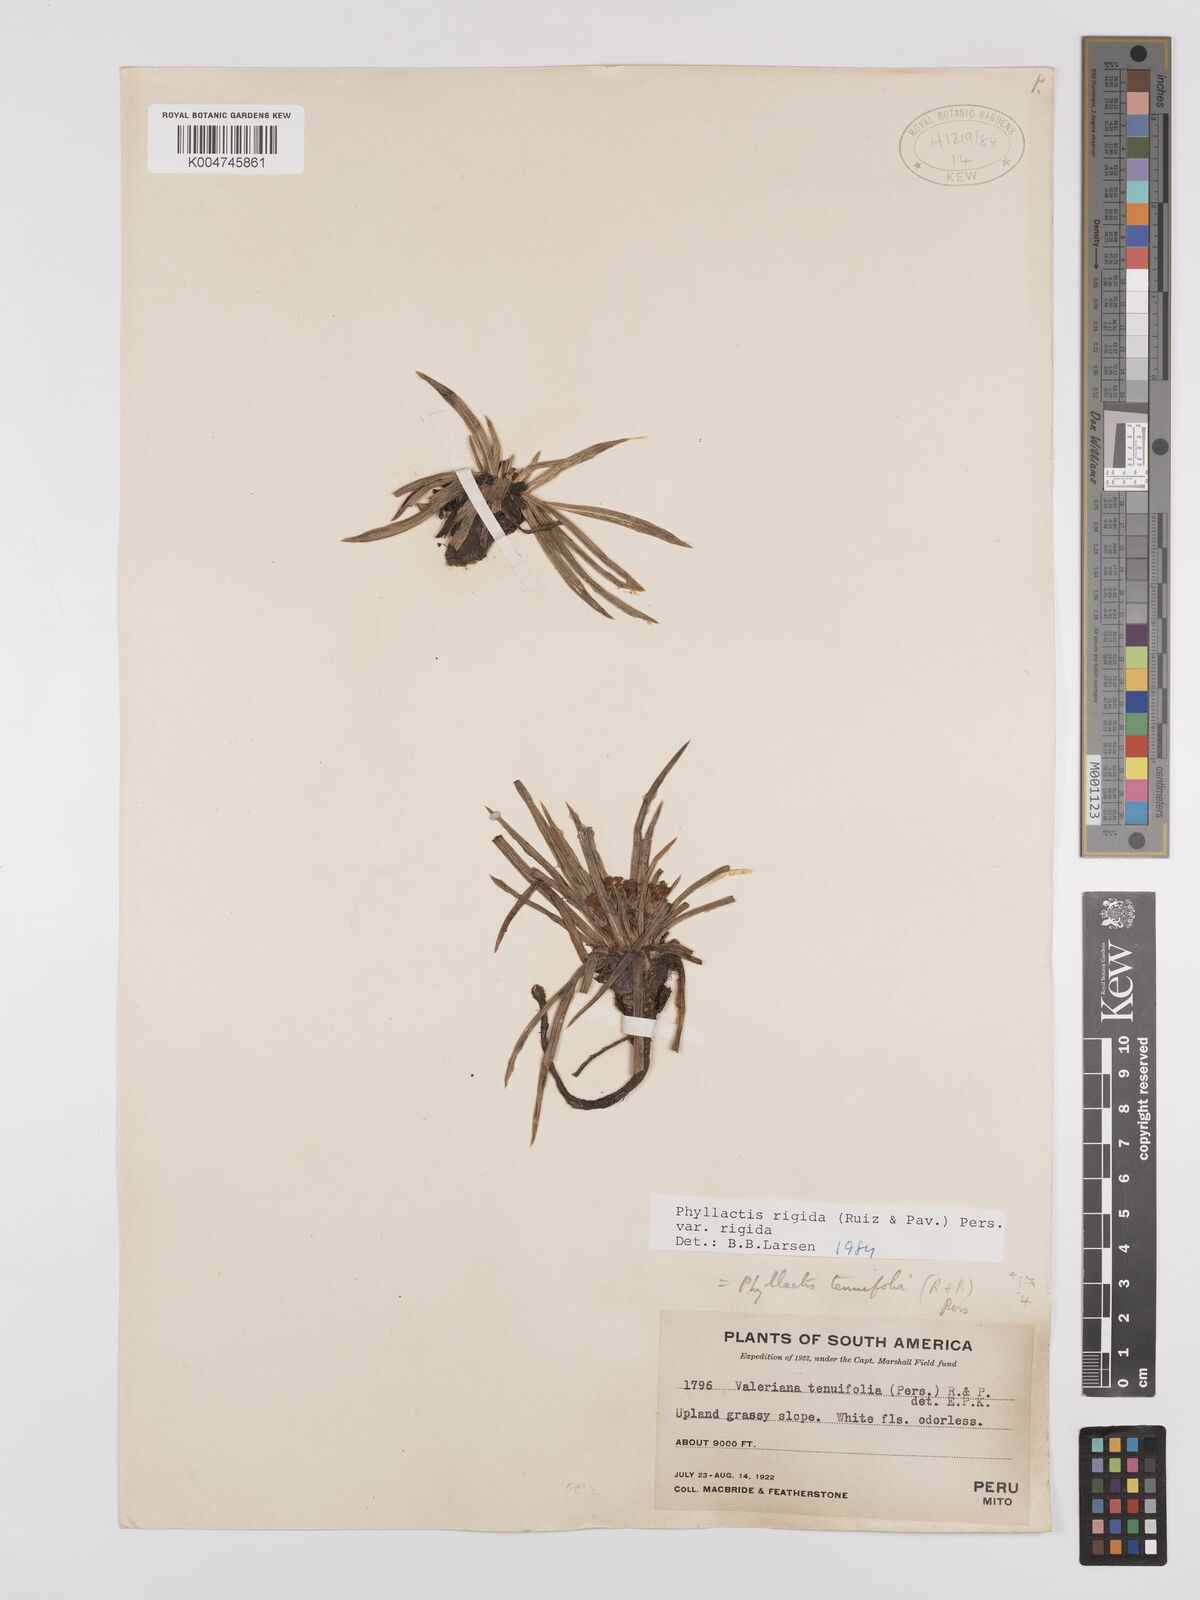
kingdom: Plantae
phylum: Tracheophyta
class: Magnoliopsida
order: Dipsacales
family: Caprifoliaceae
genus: Valeriana
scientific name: Valeriana rigida
